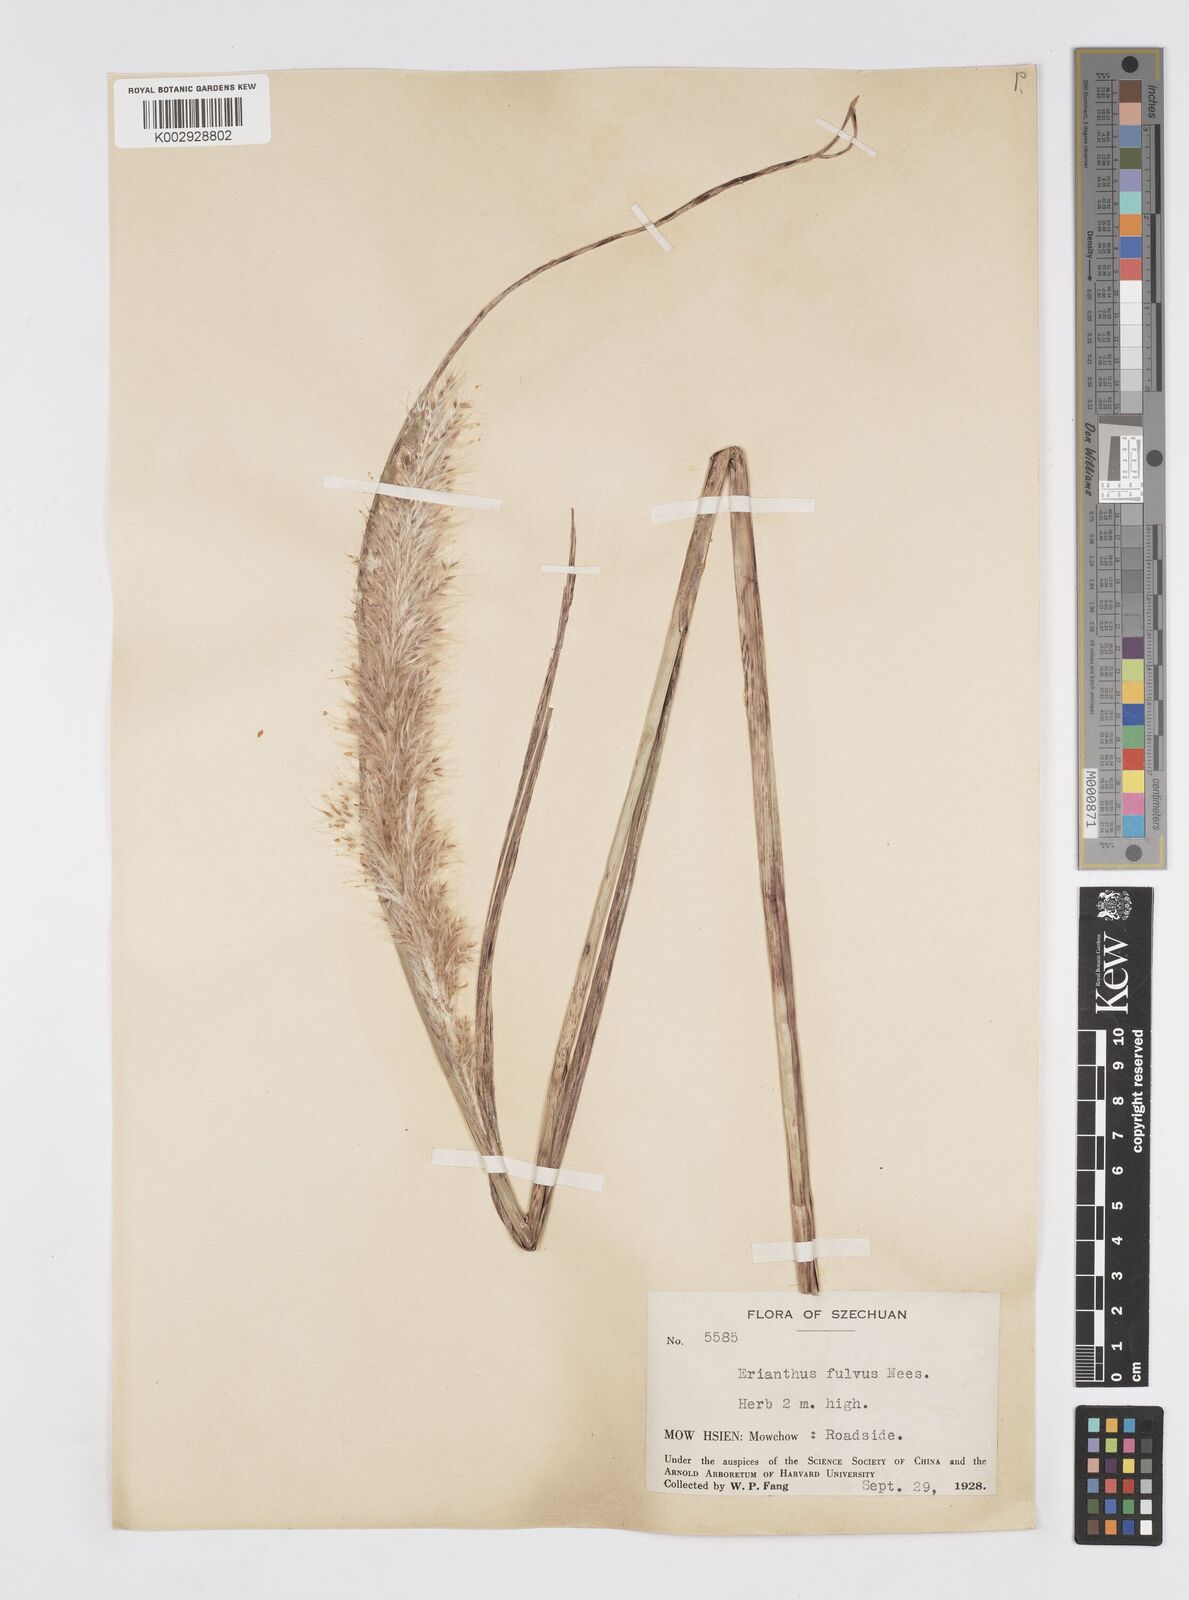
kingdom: Plantae
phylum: Tracheophyta
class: Liliopsida
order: Poales
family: Poaceae
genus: Tripidium
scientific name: Tripidium rufipilum
